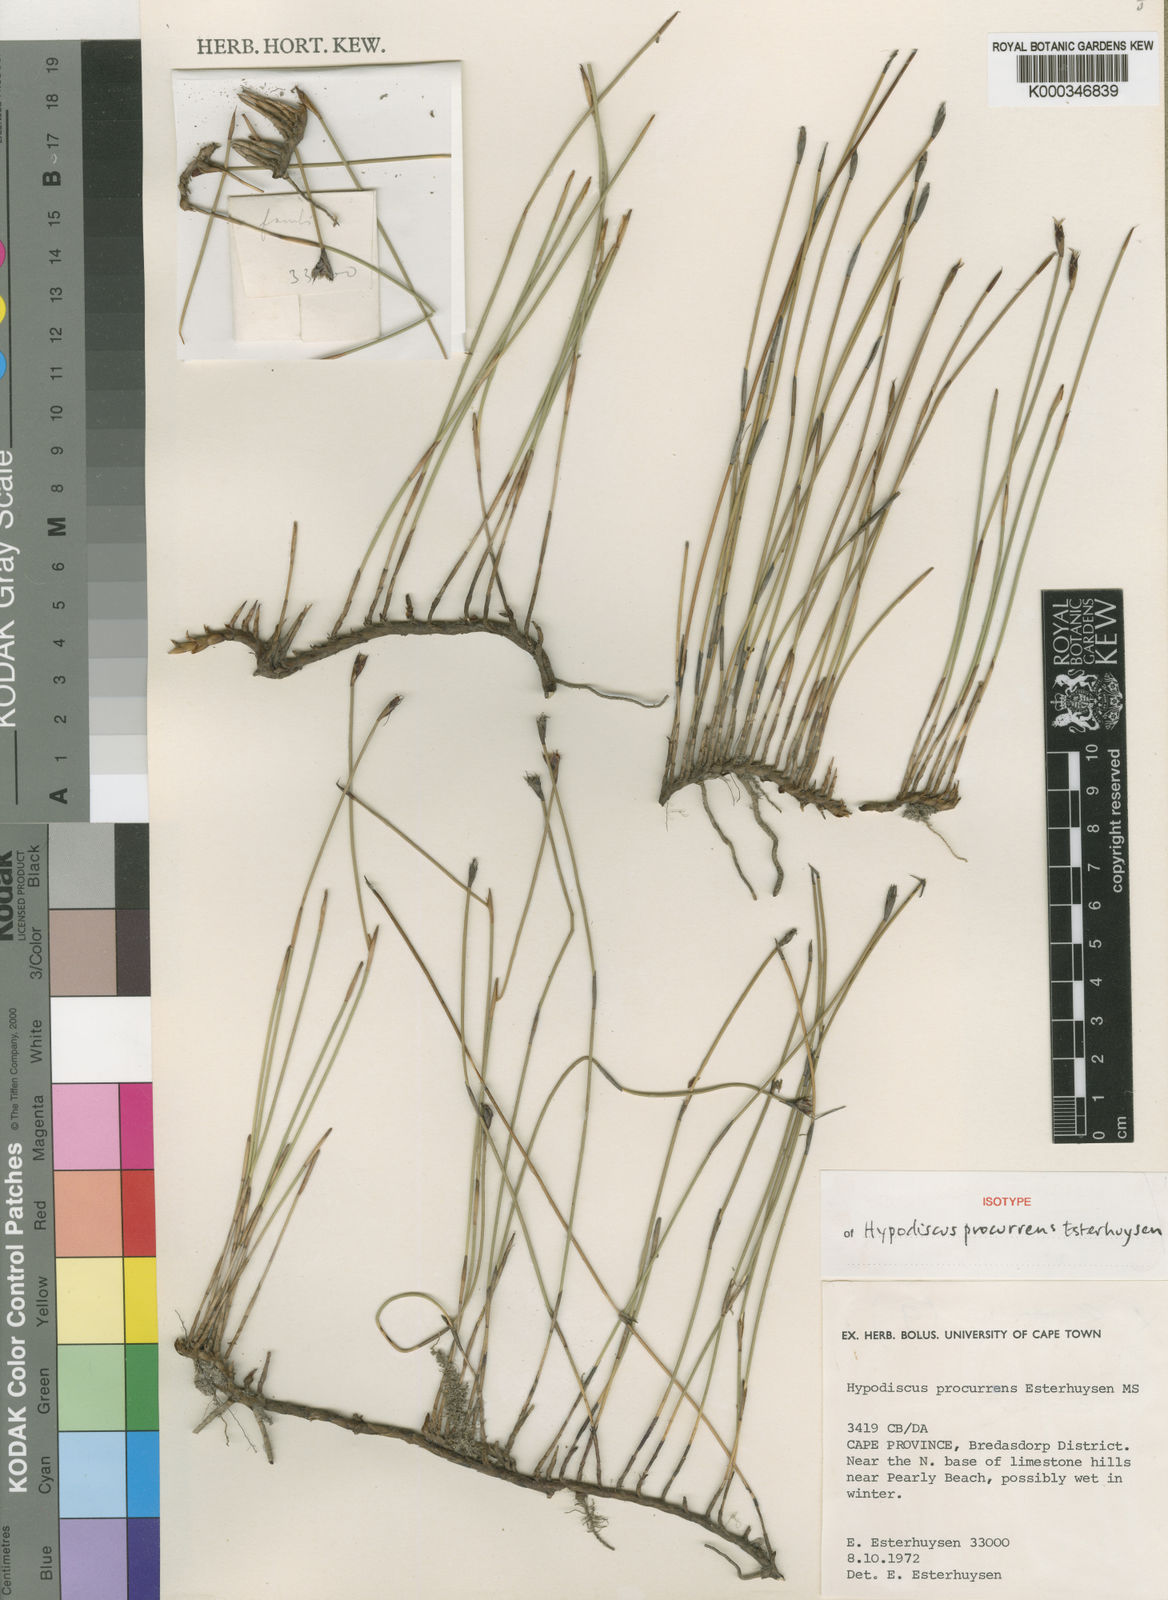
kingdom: Plantae
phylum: Tracheophyta
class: Liliopsida
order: Poales
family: Restionaceae
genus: Hypodiscus
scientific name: Hypodiscus procurrens
